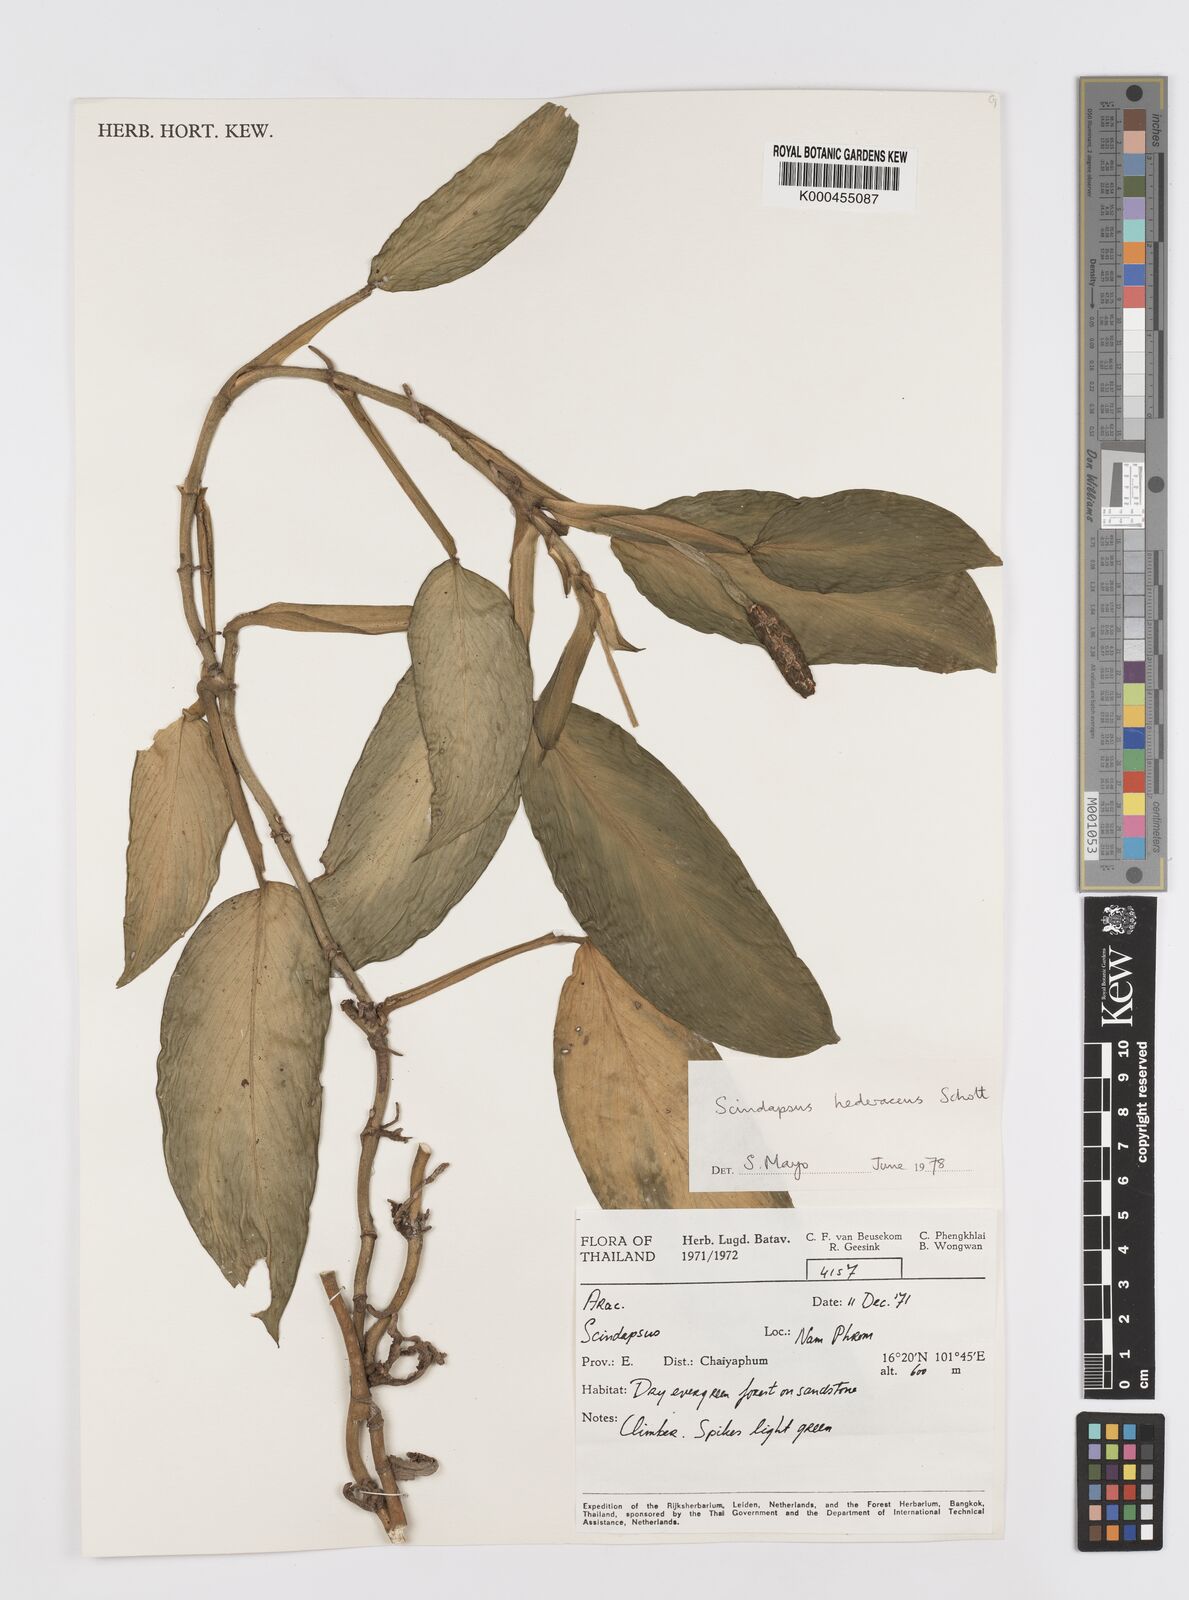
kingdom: Plantae
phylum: Tracheophyta
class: Liliopsida
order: Alismatales
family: Araceae
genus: Scindapsus
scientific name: Scindapsus hederaceus
